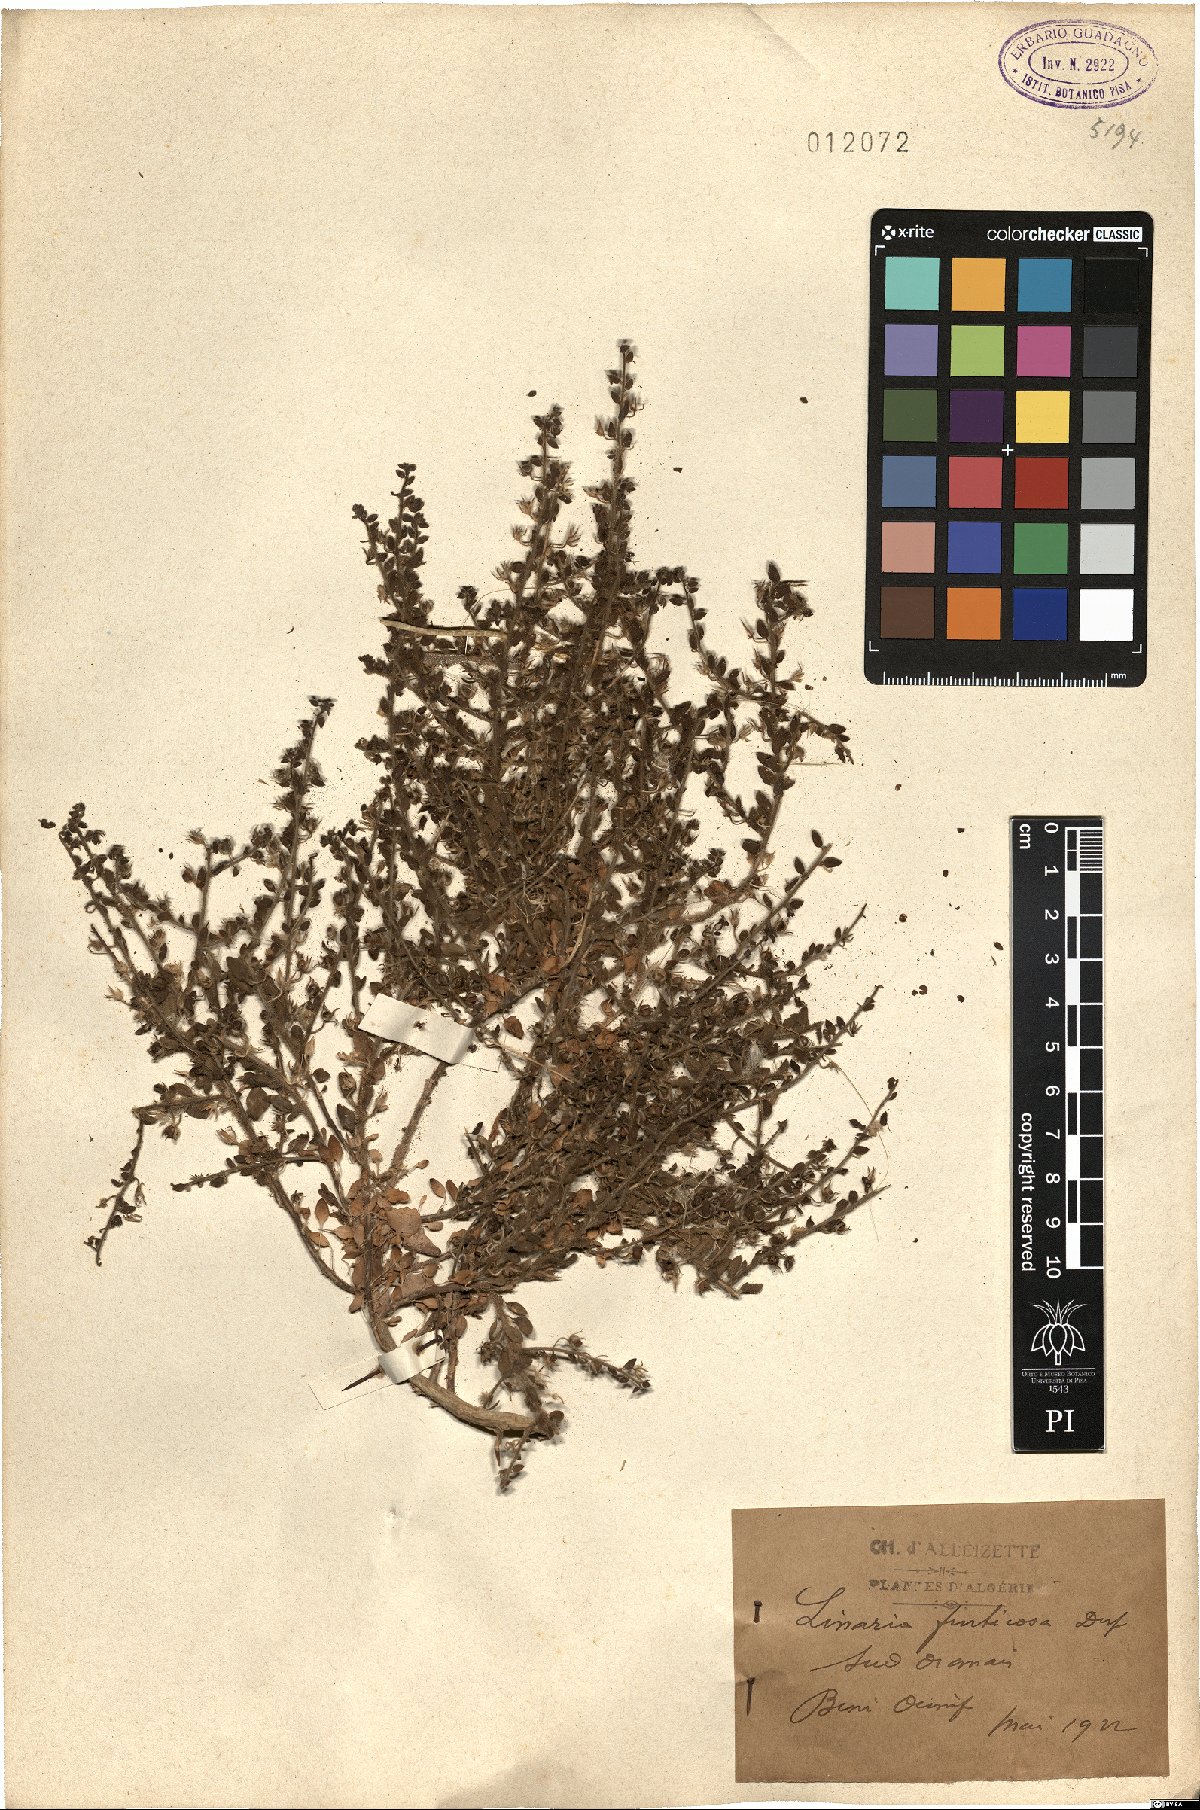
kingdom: Plantae
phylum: Tracheophyta
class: Magnoliopsida
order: Lamiales
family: Plantaginaceae
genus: Kickxia
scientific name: Kickxia aegyptiaca
